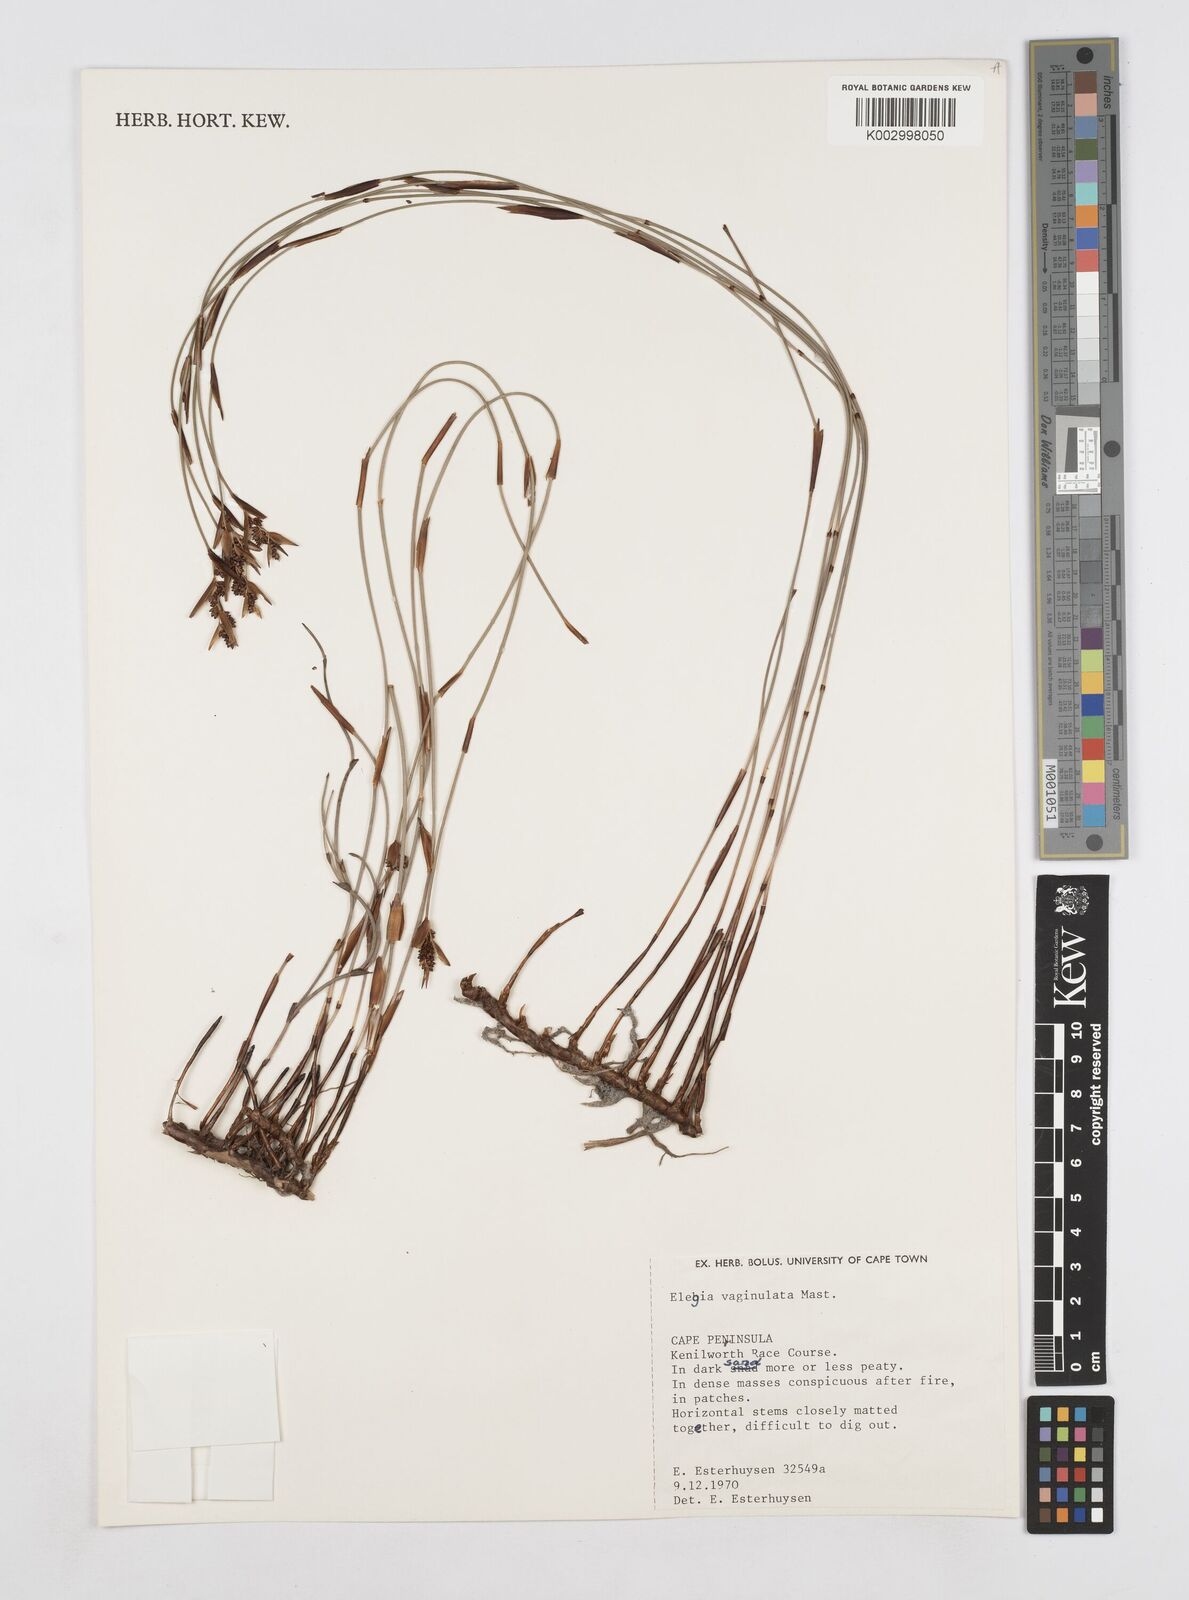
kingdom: Plantae
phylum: Tracheophyta
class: Liliopsida
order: Poales
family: Restionaceae
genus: Elegia
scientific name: Elegia vaginulata
